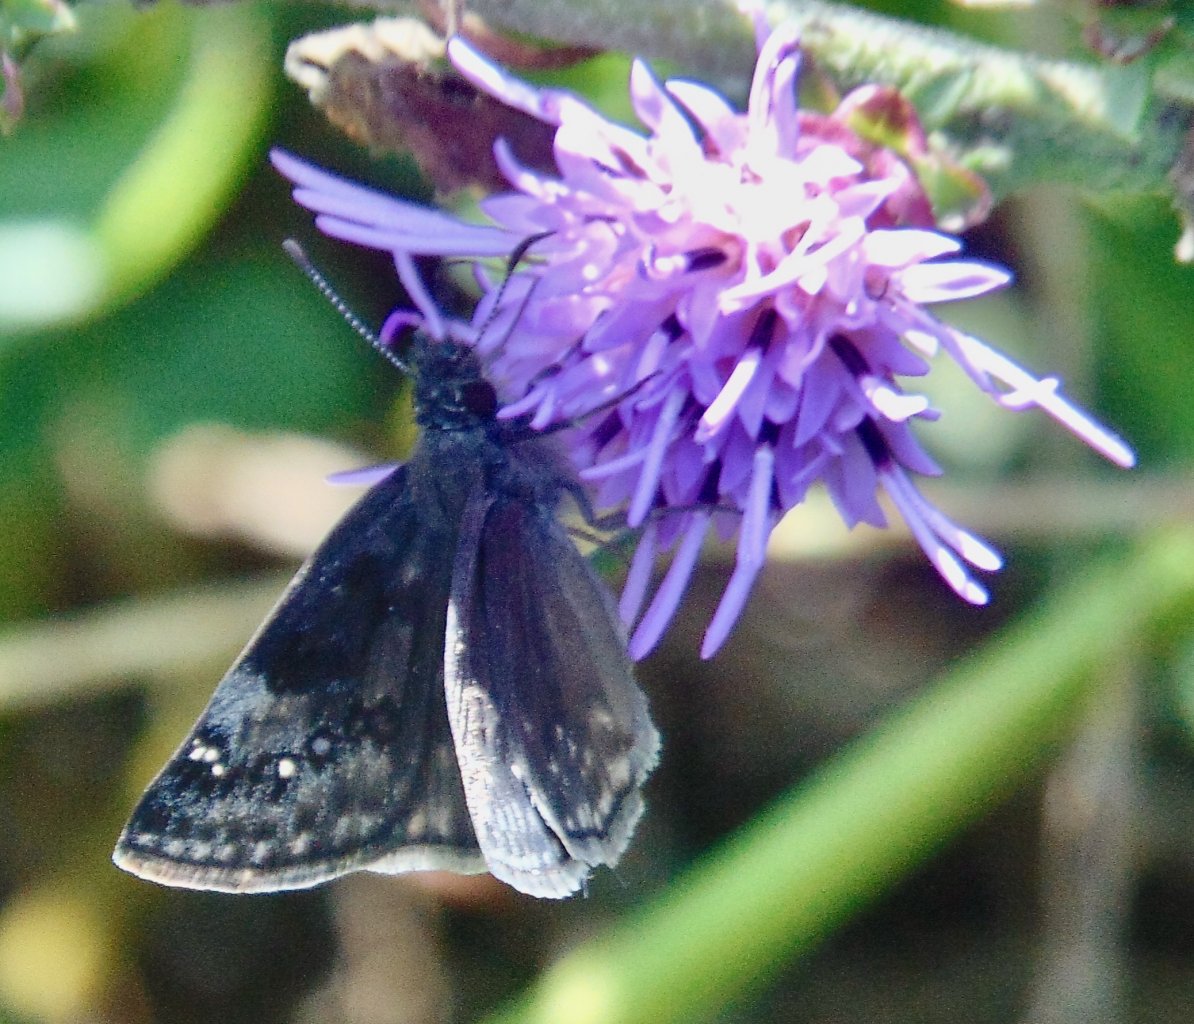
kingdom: Animalia
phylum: Arthropoda
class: Insecta
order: Lepidoptera
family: Hesperiidae
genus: Gesta
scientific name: Gesta
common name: Wild Indigo Duskywing
